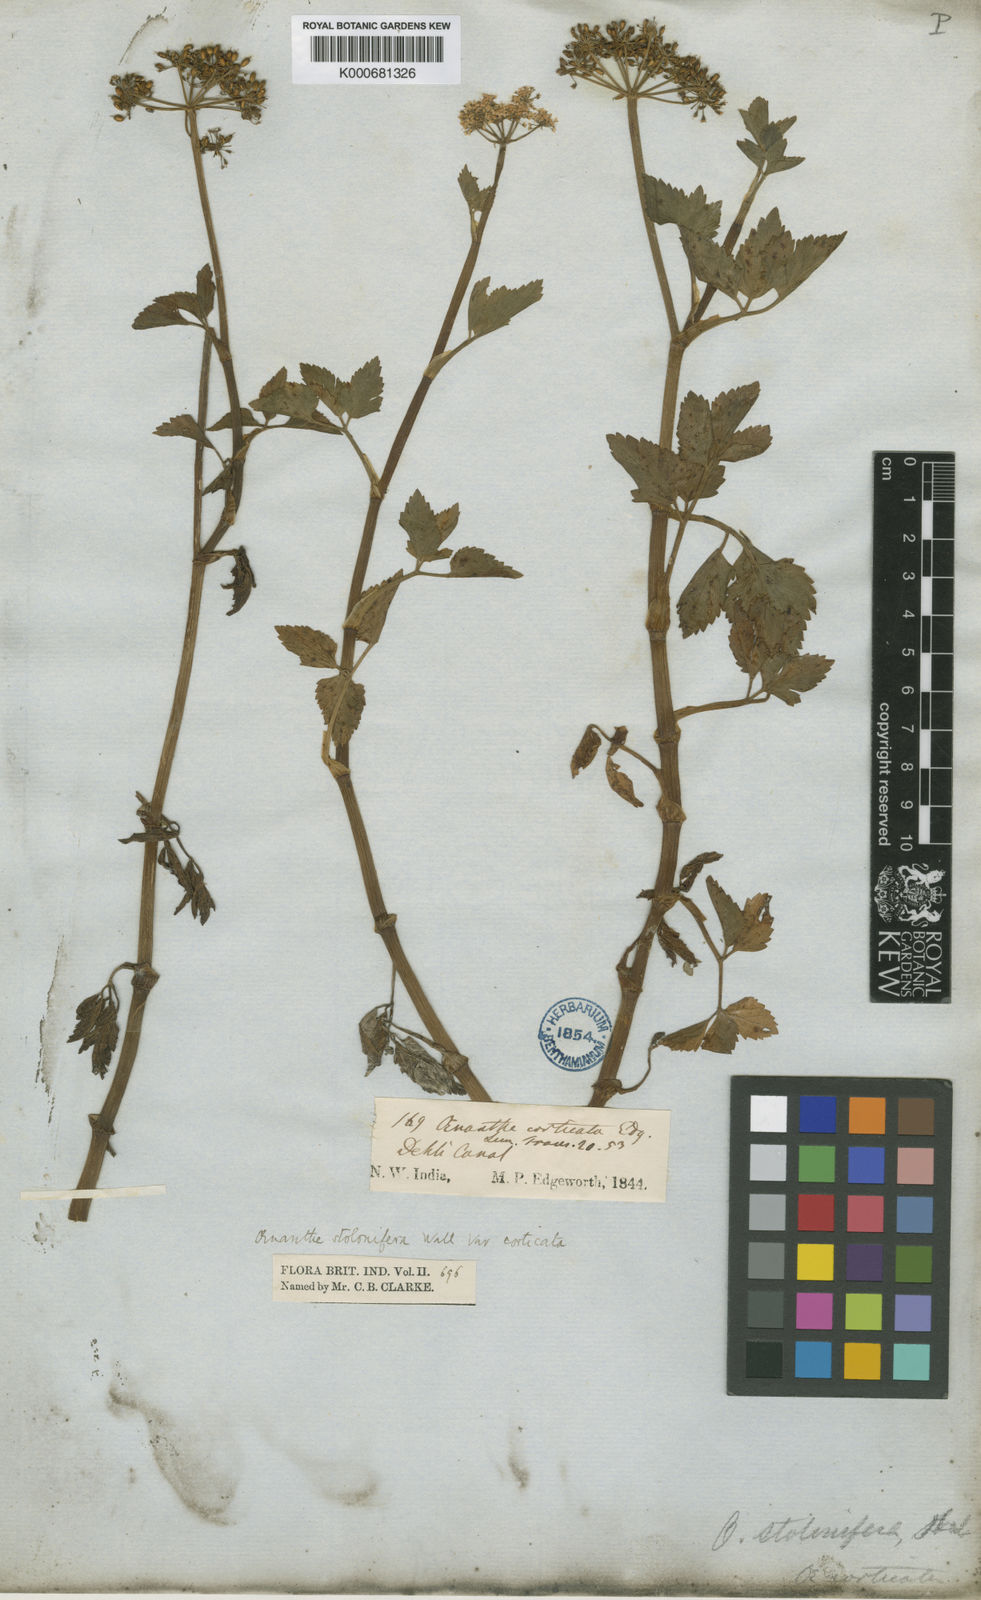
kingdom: Plantae
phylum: Tracheophyta
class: Magnoliopsida
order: Apiales
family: Apiaceae
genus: Oenanthe
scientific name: Oenanthe
